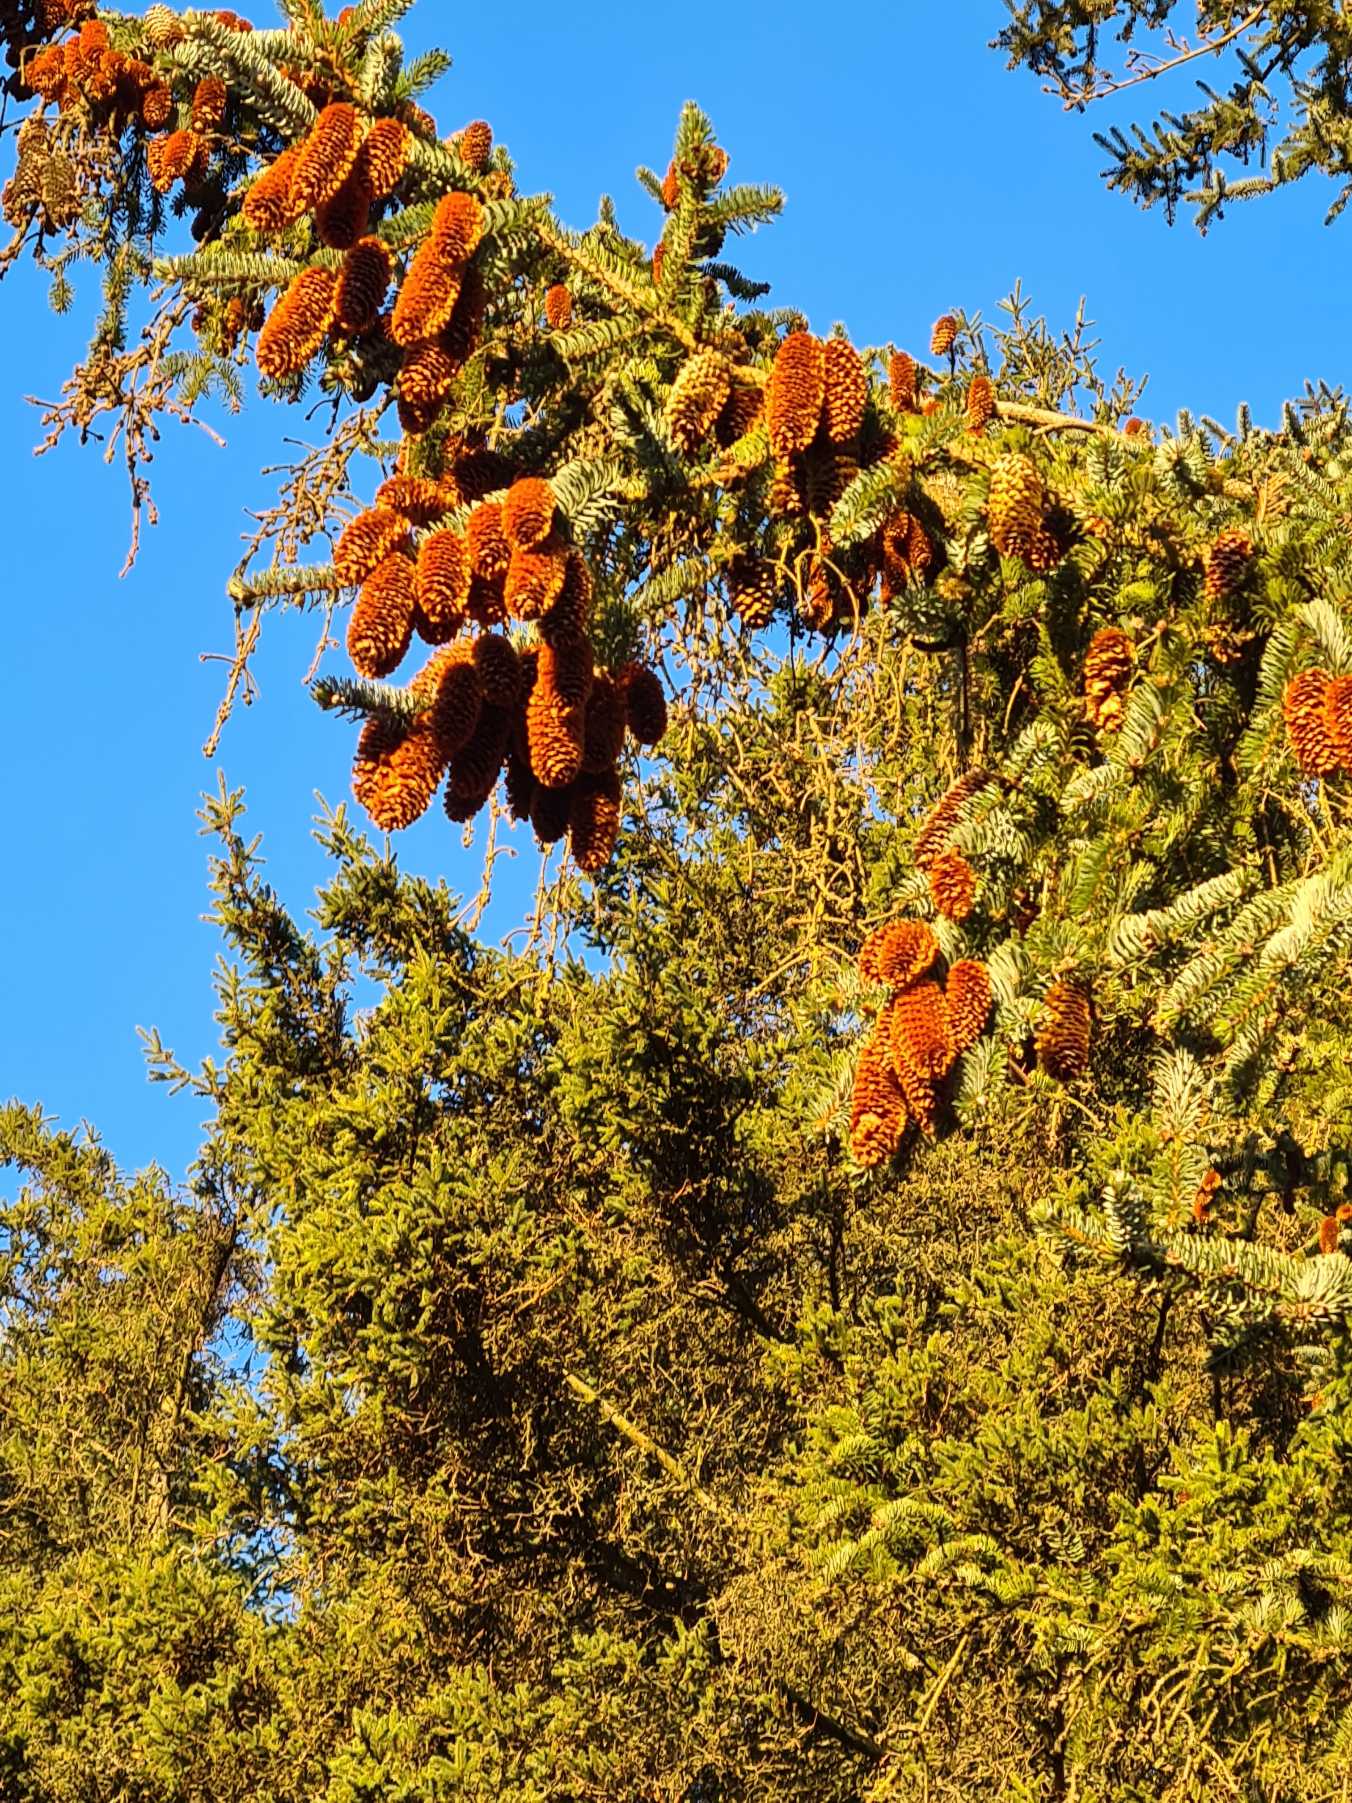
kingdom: Plantae
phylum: Tracheophyta
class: Pinopsida
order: Pinales
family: Pinaceae
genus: Picea
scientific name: Picea sitchensis
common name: Sitka-gran
